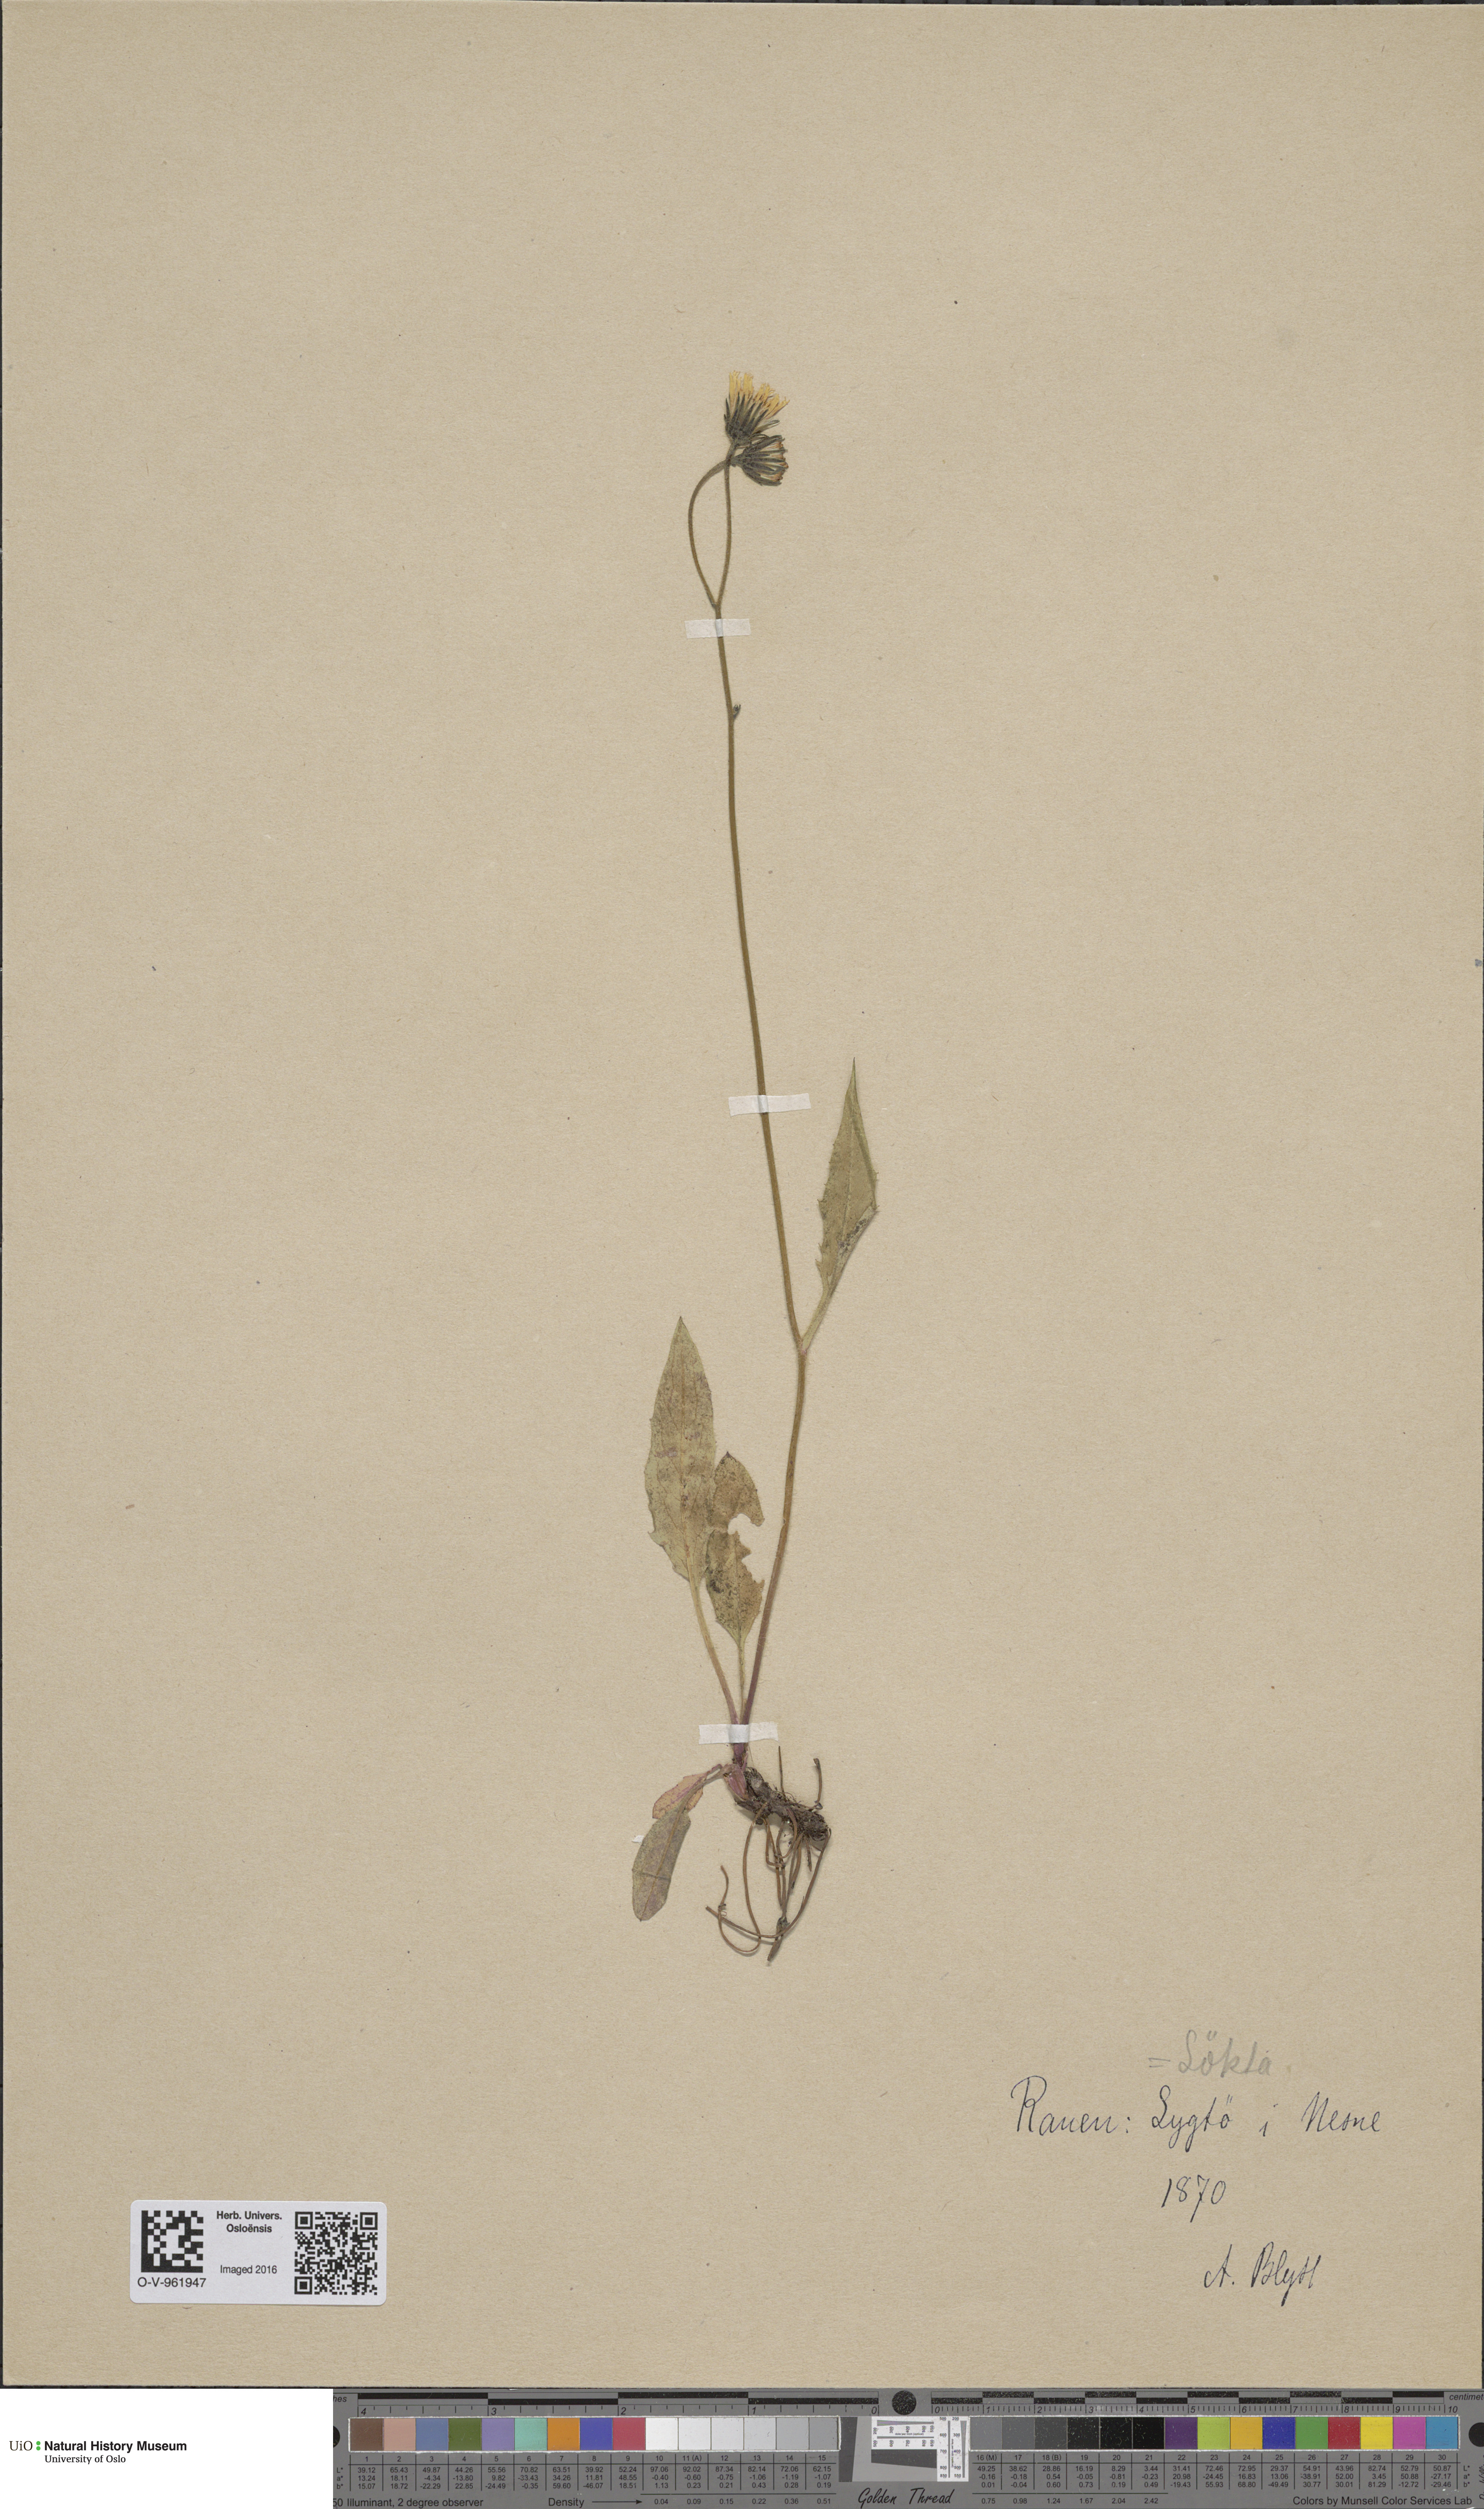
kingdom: Plantae
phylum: Tracheophyta
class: Magnoliopsida
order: Asterales
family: Asteraceae
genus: Hieracium
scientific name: Hieracium murorum
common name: Wall hawkweed
